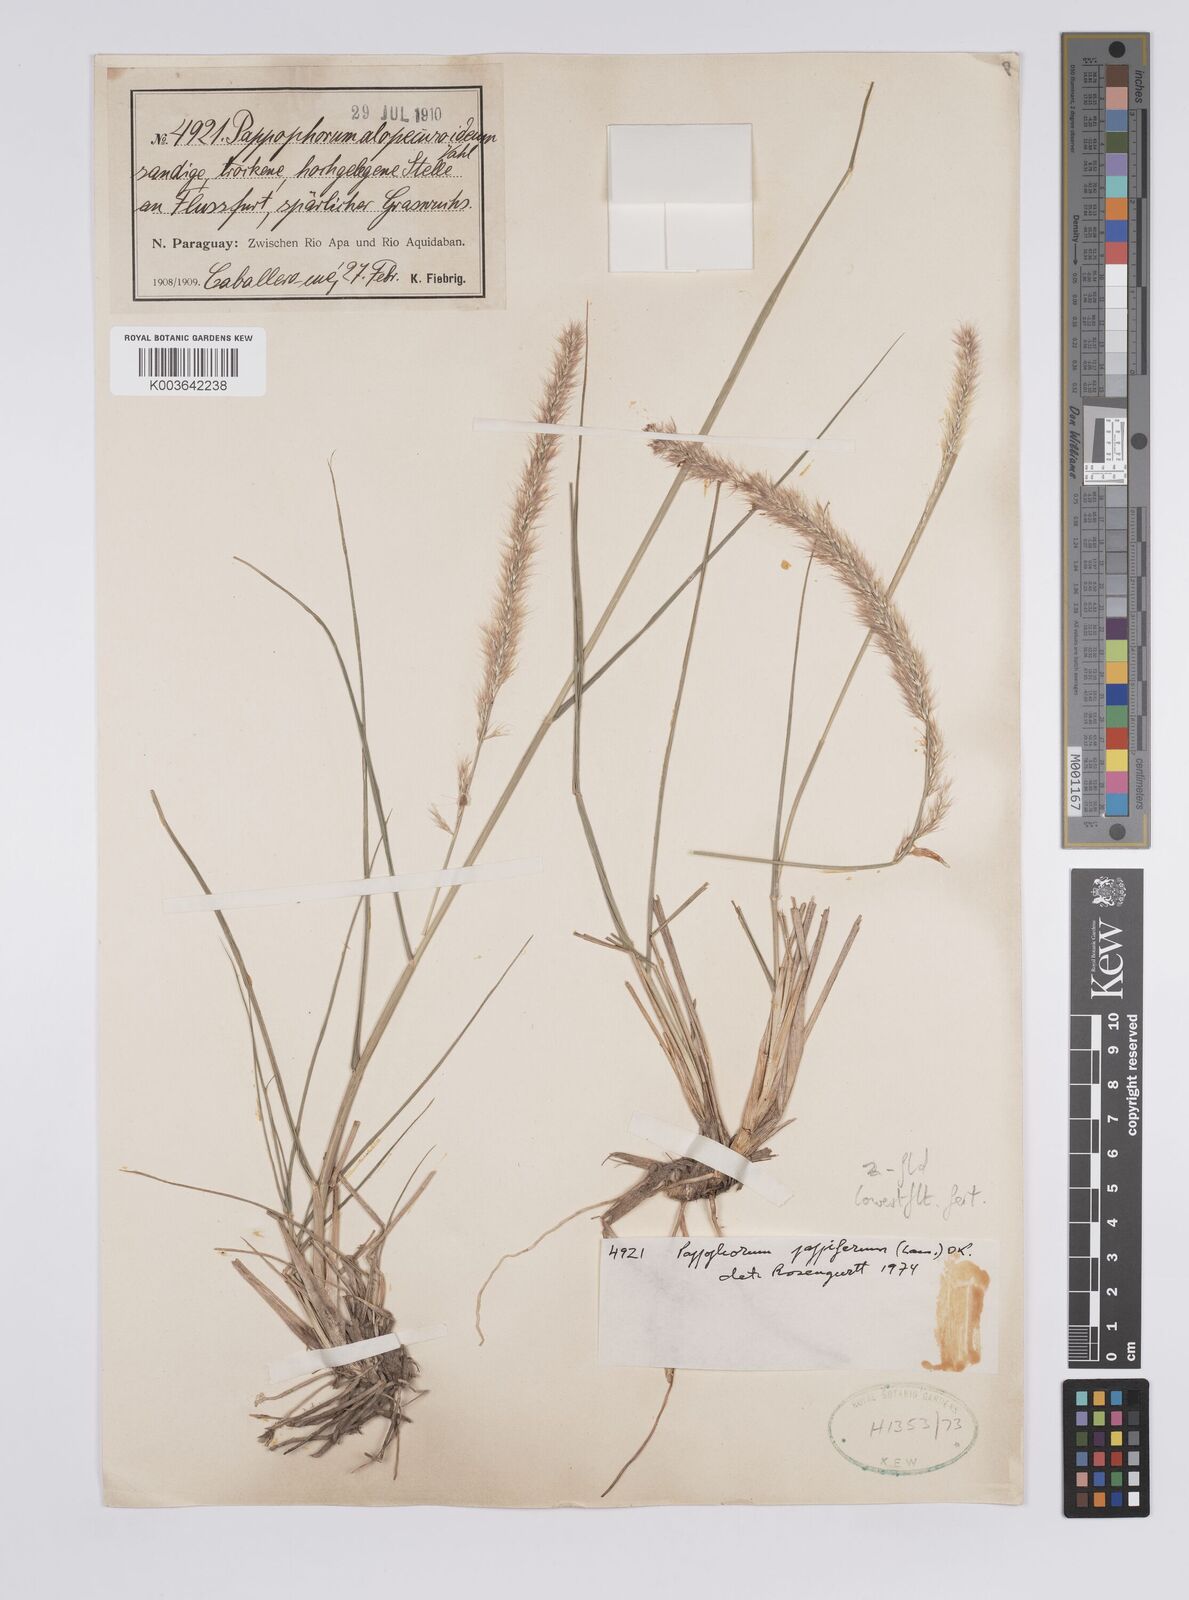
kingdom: Plantae
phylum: Tracheophyta
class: Liliopsida
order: Poales
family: Poaceae
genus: Pappophorum
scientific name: Pappophorum caespitosum
